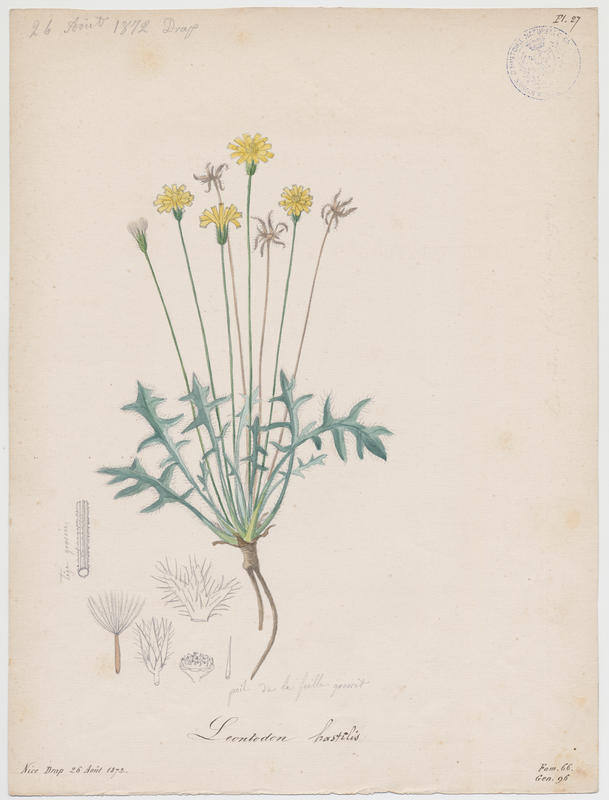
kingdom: Plantae
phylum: Tracheophyta
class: Magnoliopsida
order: Asterales
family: Asteraceae
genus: Leontodon
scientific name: Leontodon hispidus
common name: Rough hawkbit
